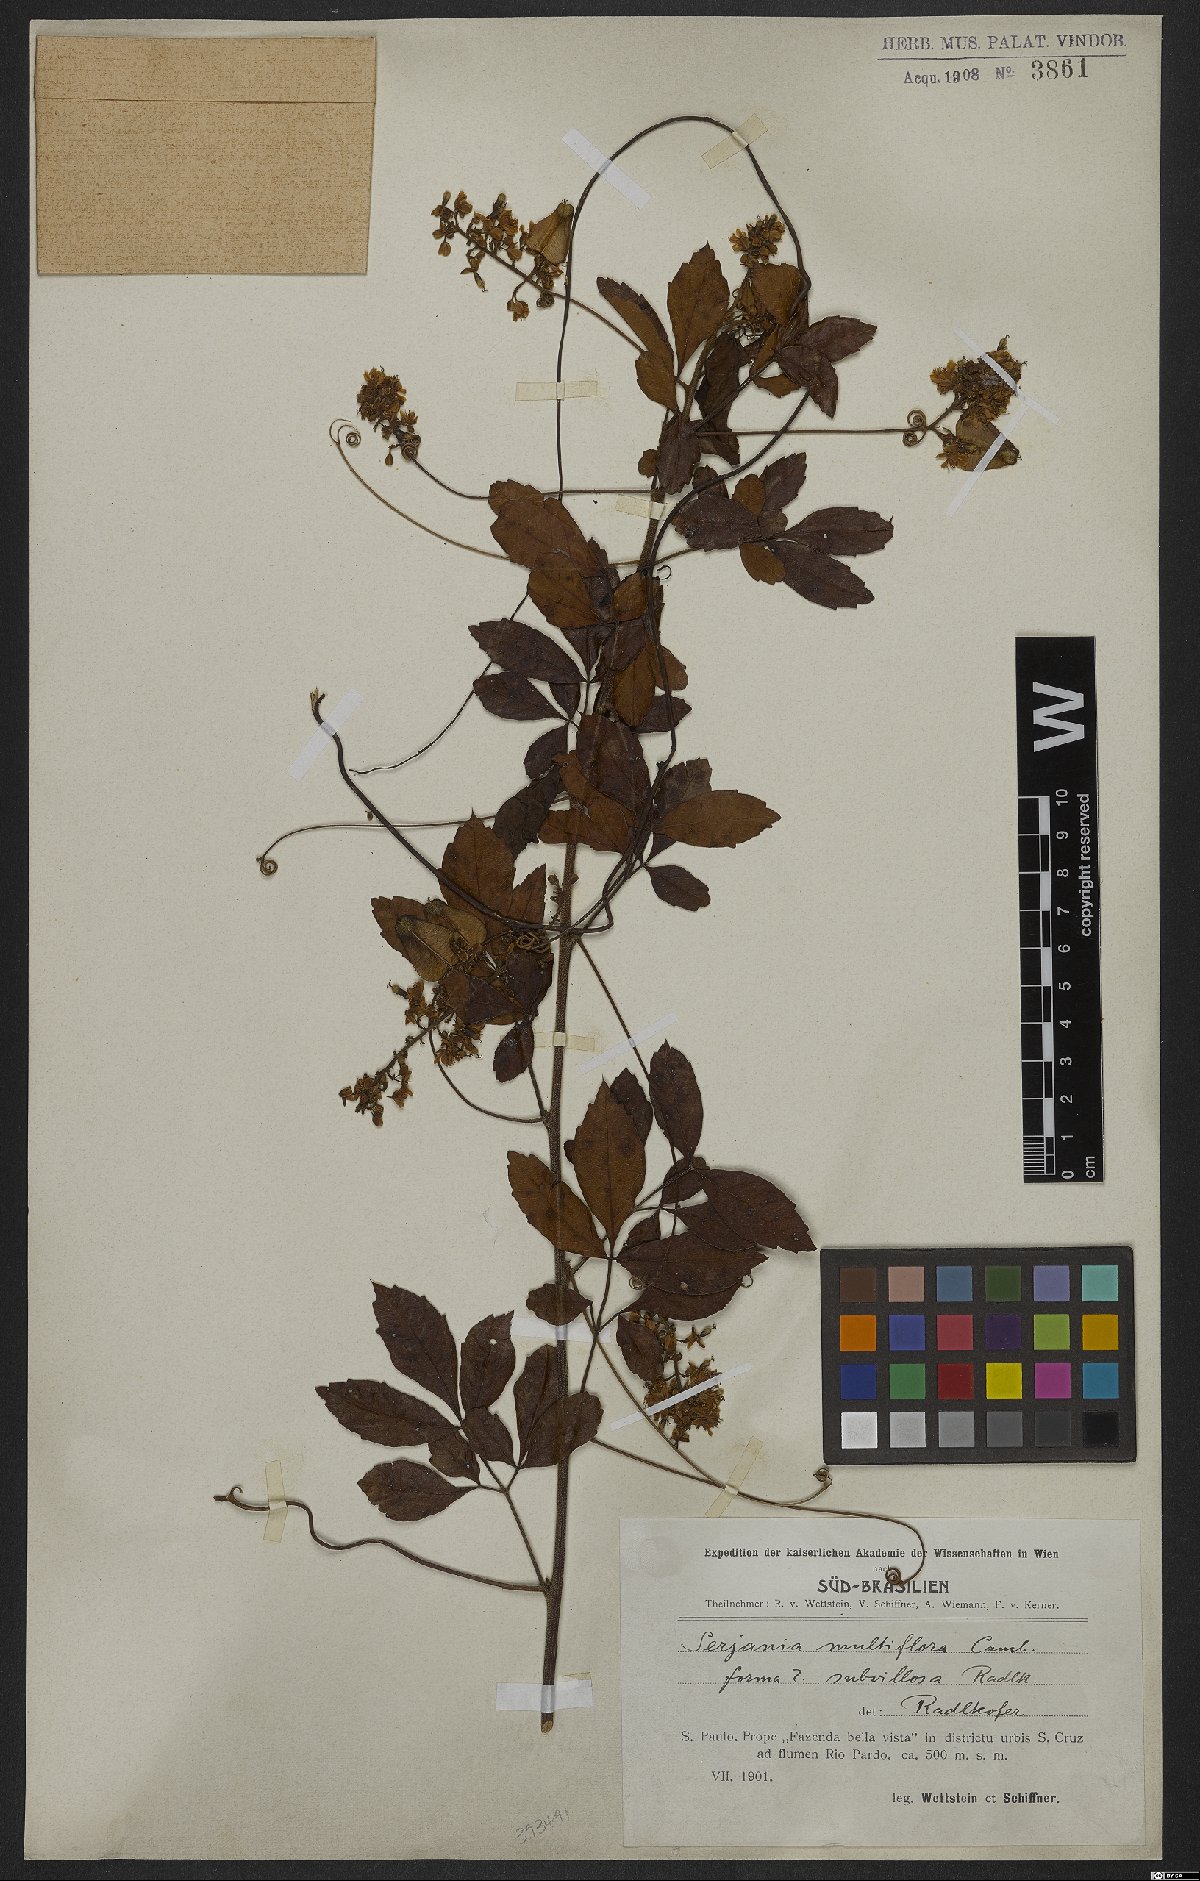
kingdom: Plantae
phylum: Tracheophyta
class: Magnoliopsida
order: Sapindales
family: Sapindaceae
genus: Serjania
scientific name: Serjania multiflora
